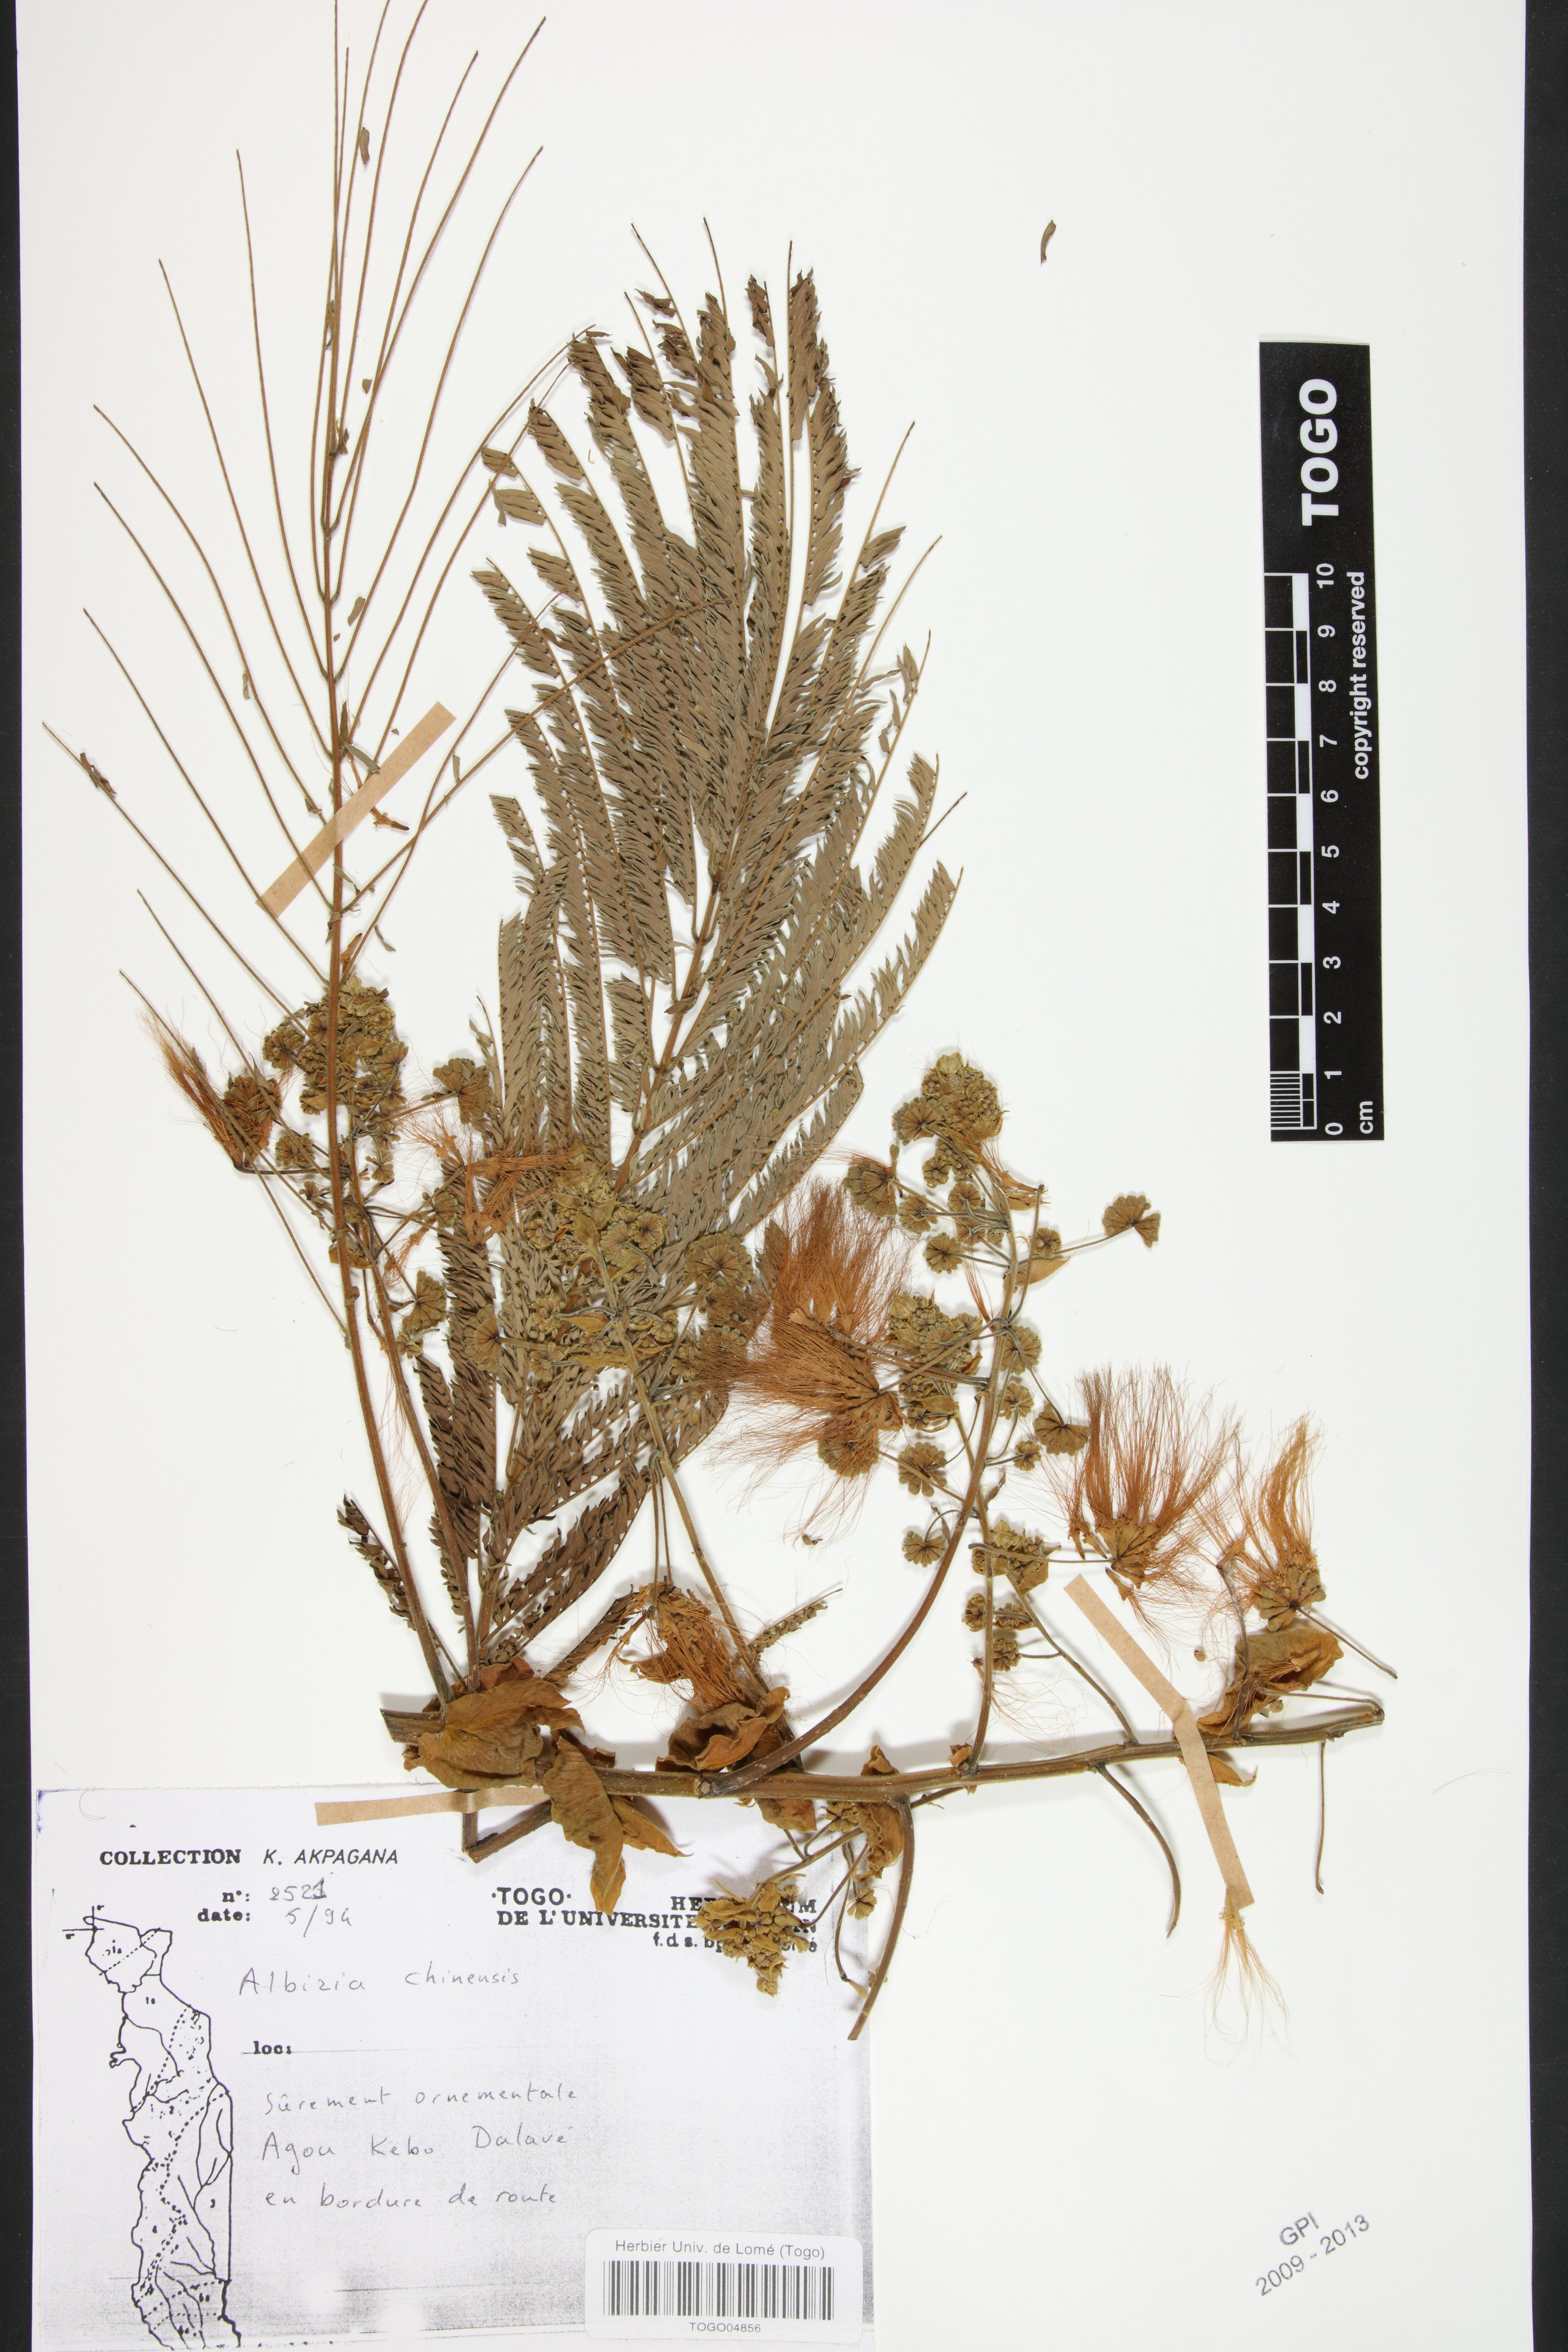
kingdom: Plantae
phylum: Tracheophyta
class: Magnoliopsida
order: Fabales
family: Fabaceae
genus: Albizia
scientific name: Albizia chinensis
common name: Chinese albizia
